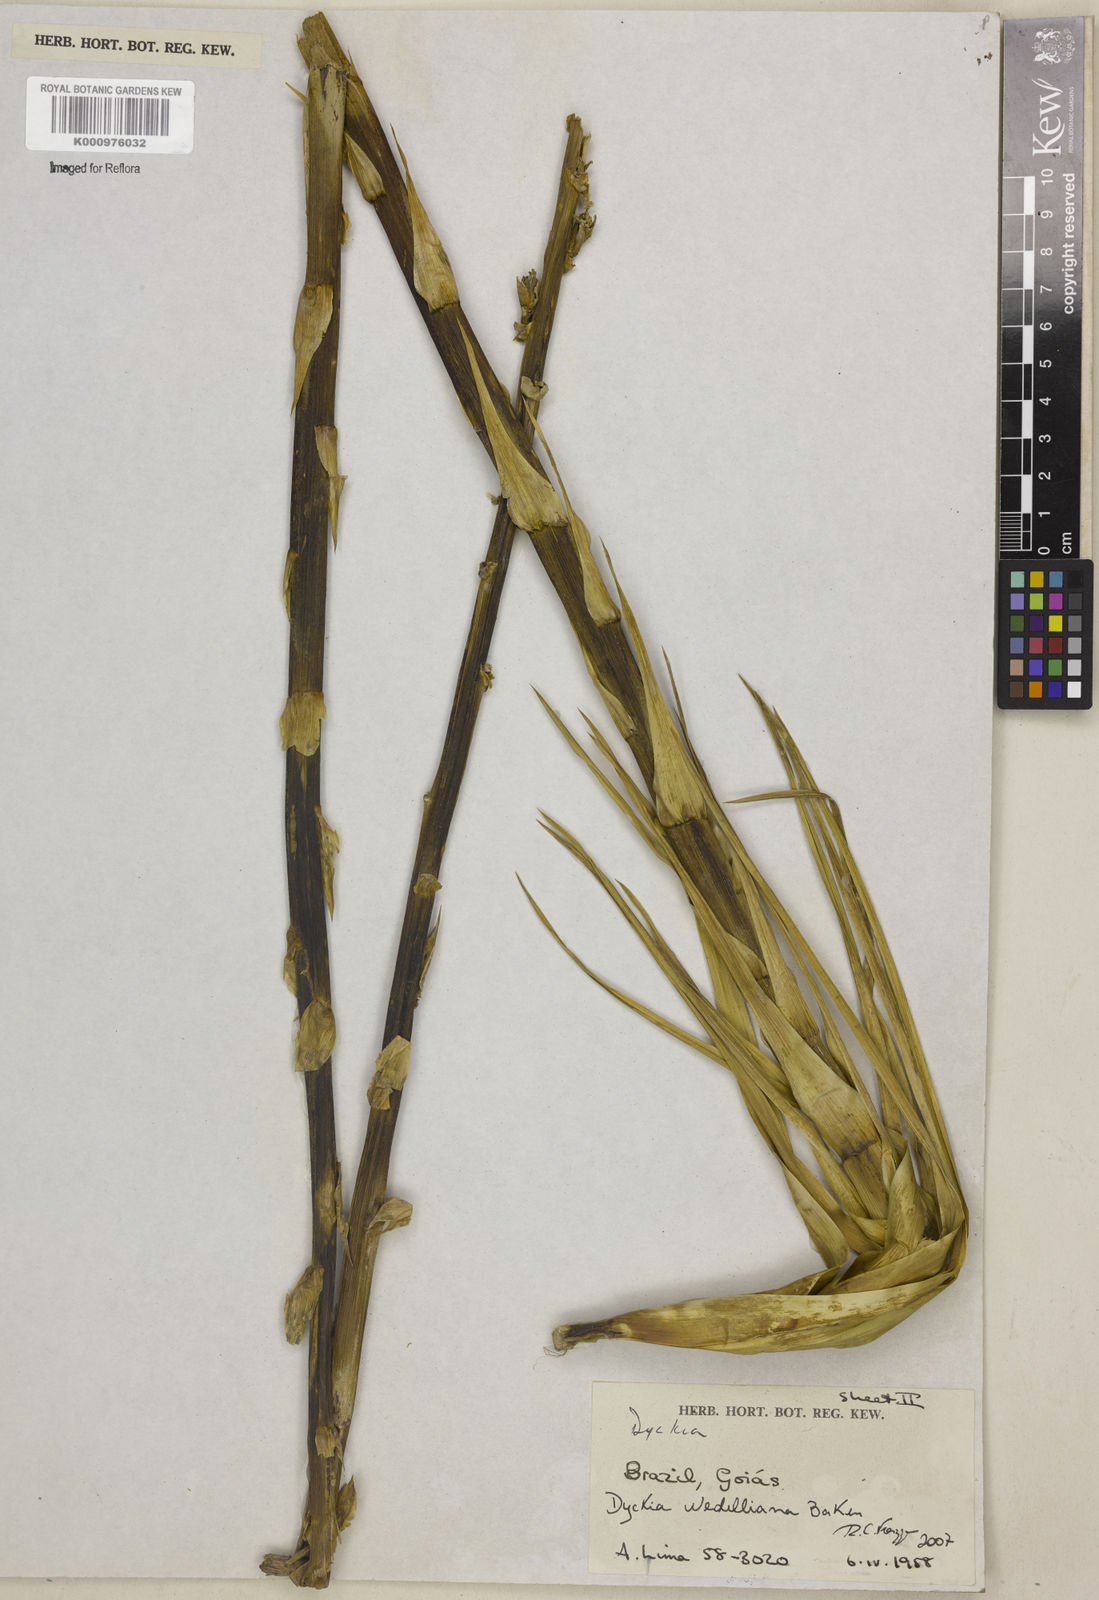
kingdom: Plantae
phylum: Tracheophyta
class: Liliopsida
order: Poales
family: Bromeliaceae
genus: Dyckia
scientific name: Dyckia weddelliana
